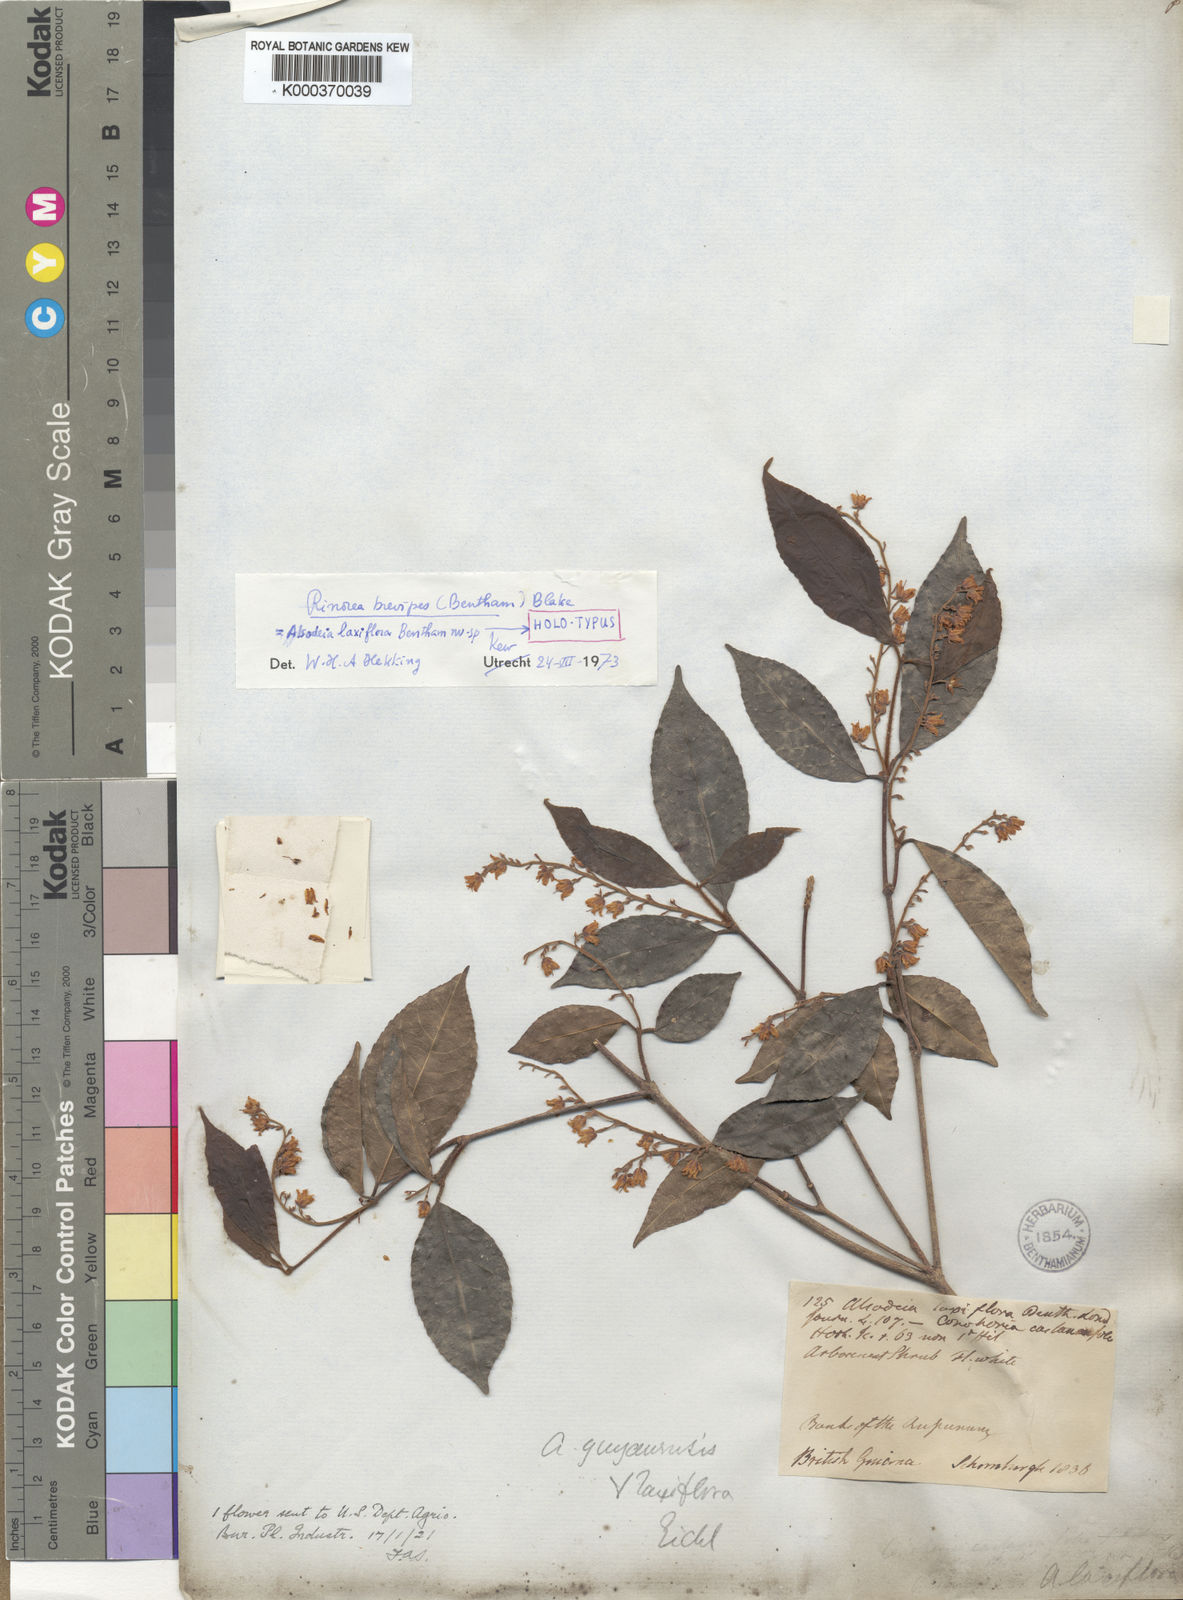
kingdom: Plantae
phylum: Tracheophyta
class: Magnoliopsida
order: Malpighiales
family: Violaceae
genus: Rinorea
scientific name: Rinorea brevipes
